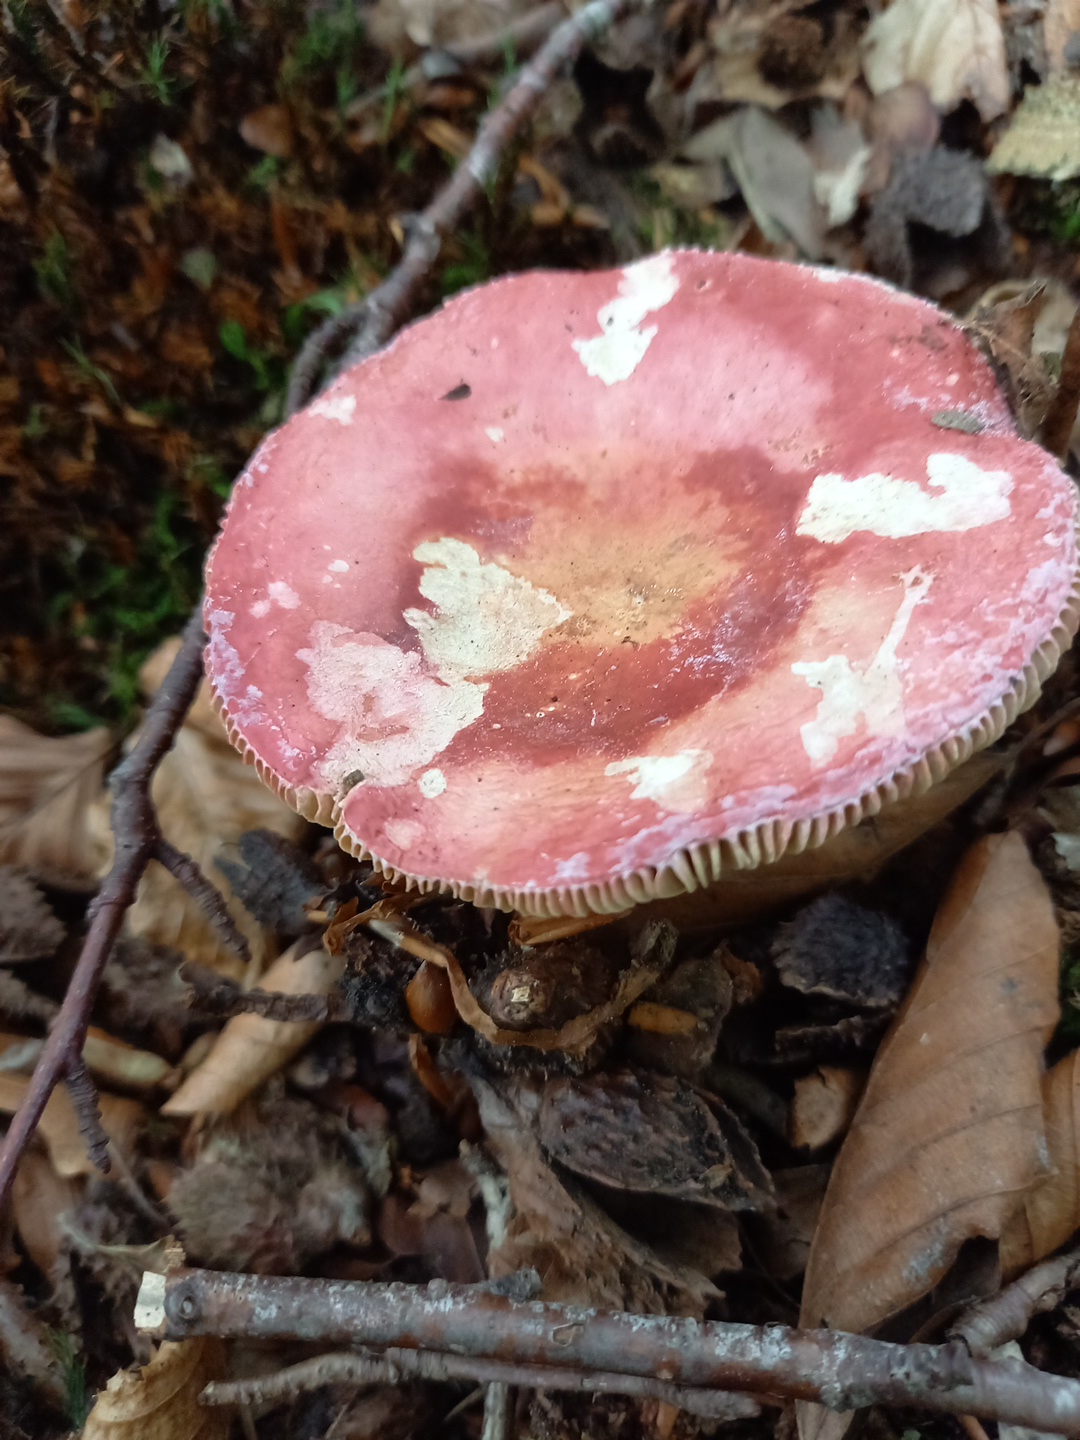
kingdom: Fungi
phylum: Basidiomycota
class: Agaricomycetes
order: Russulales
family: Russulaceae
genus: Russula
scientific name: Russula
